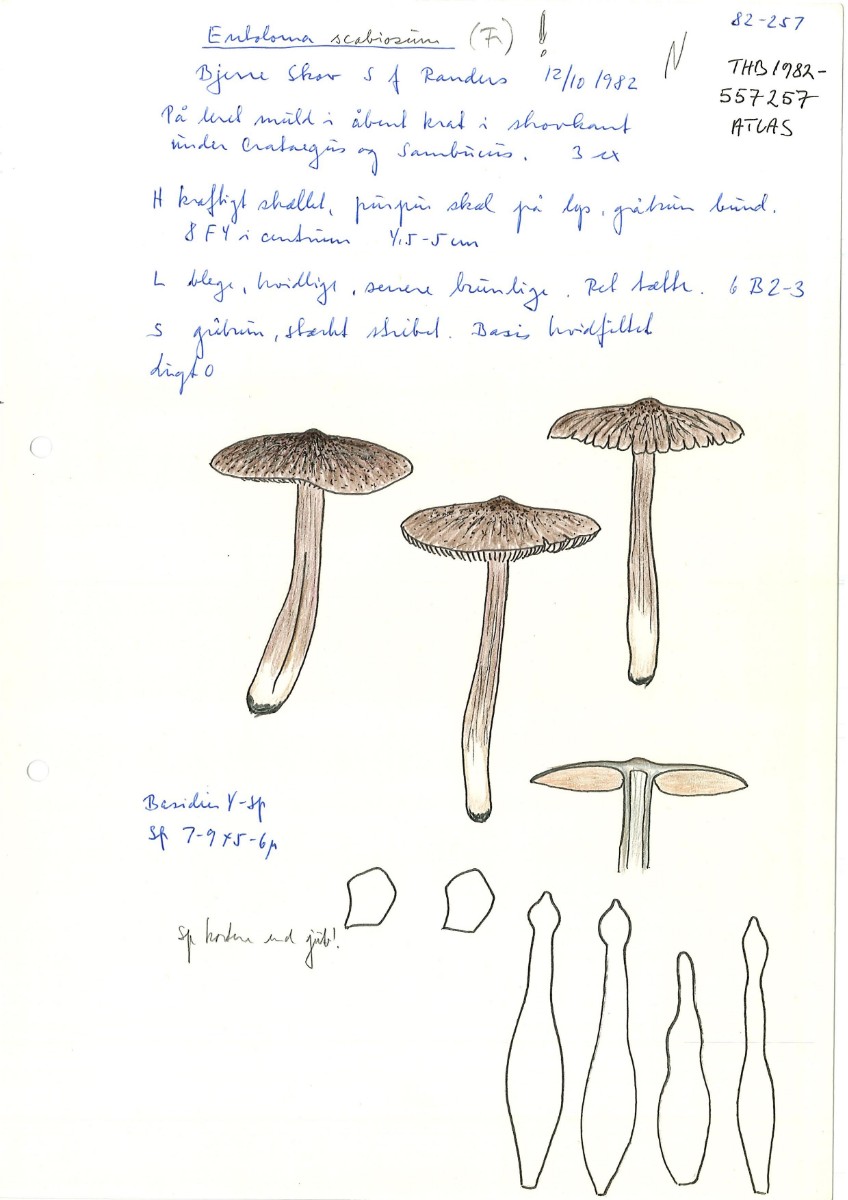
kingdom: Fungi
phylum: Basidiomycota
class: Agaricomycetes
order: Agaricales
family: Entolomataceae
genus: Entoloma
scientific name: Entoloma waverenii
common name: trævlet rødblad
